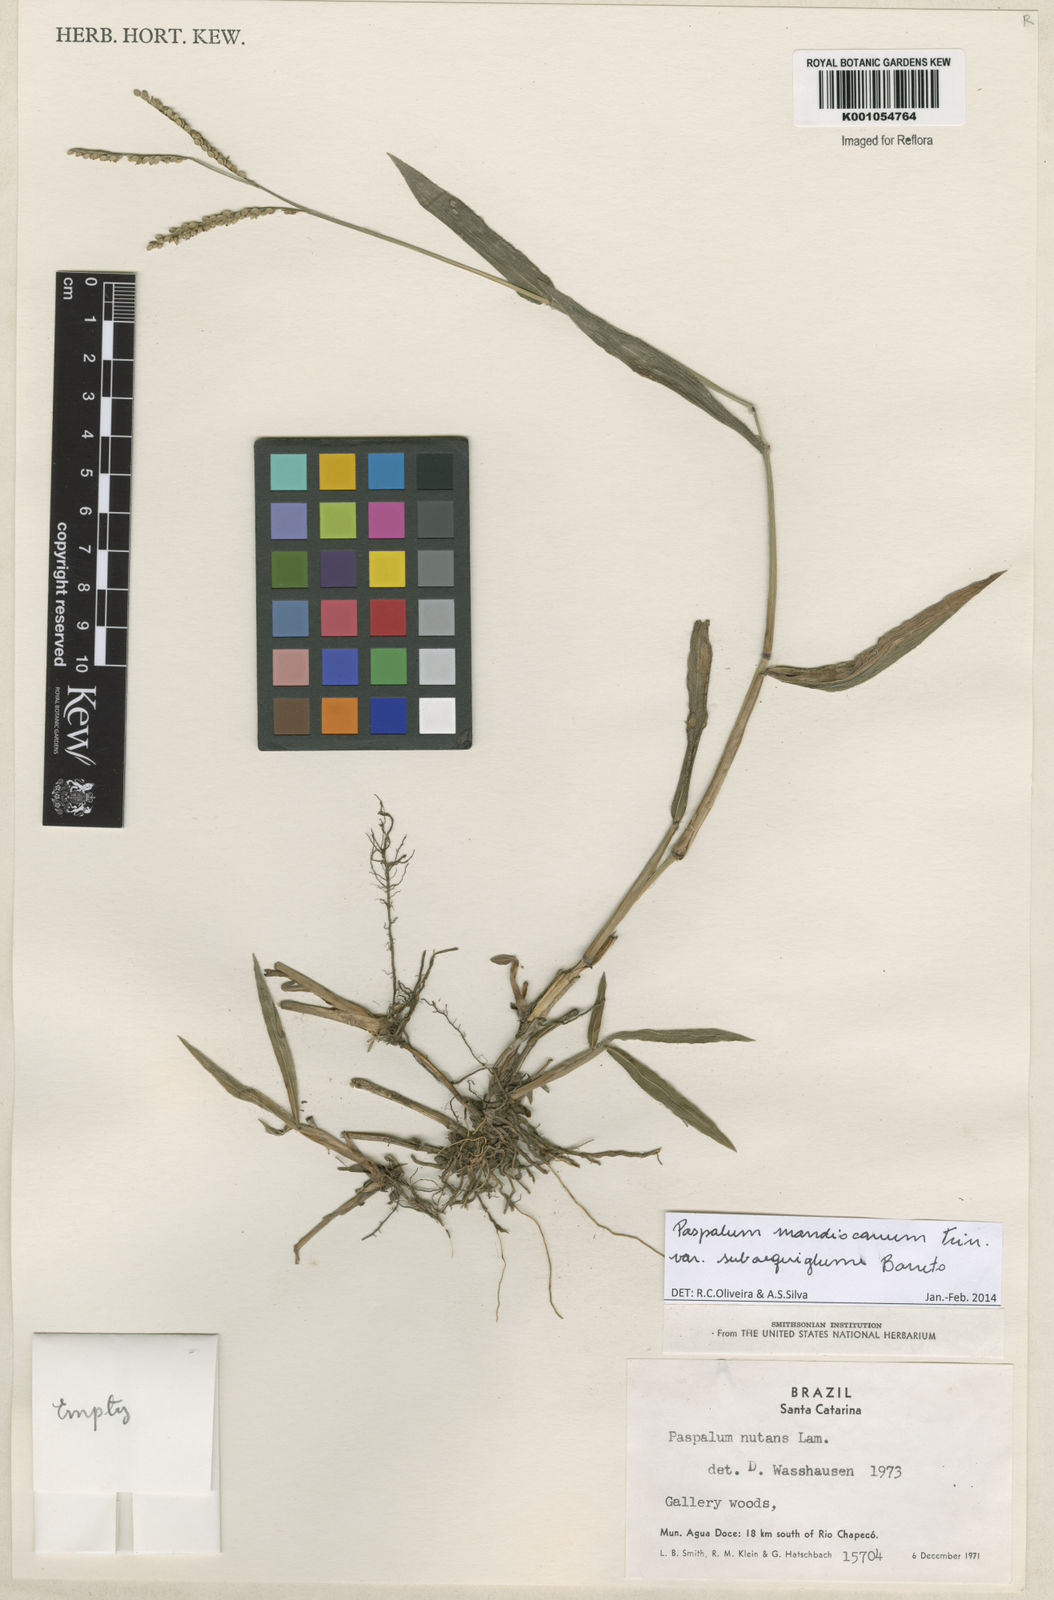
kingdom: Plantae
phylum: Tracheophyta
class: Liliopsida
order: Poales
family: Poaceae
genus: Paspalum
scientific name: Paspalum mandiocanum
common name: Paspalum
